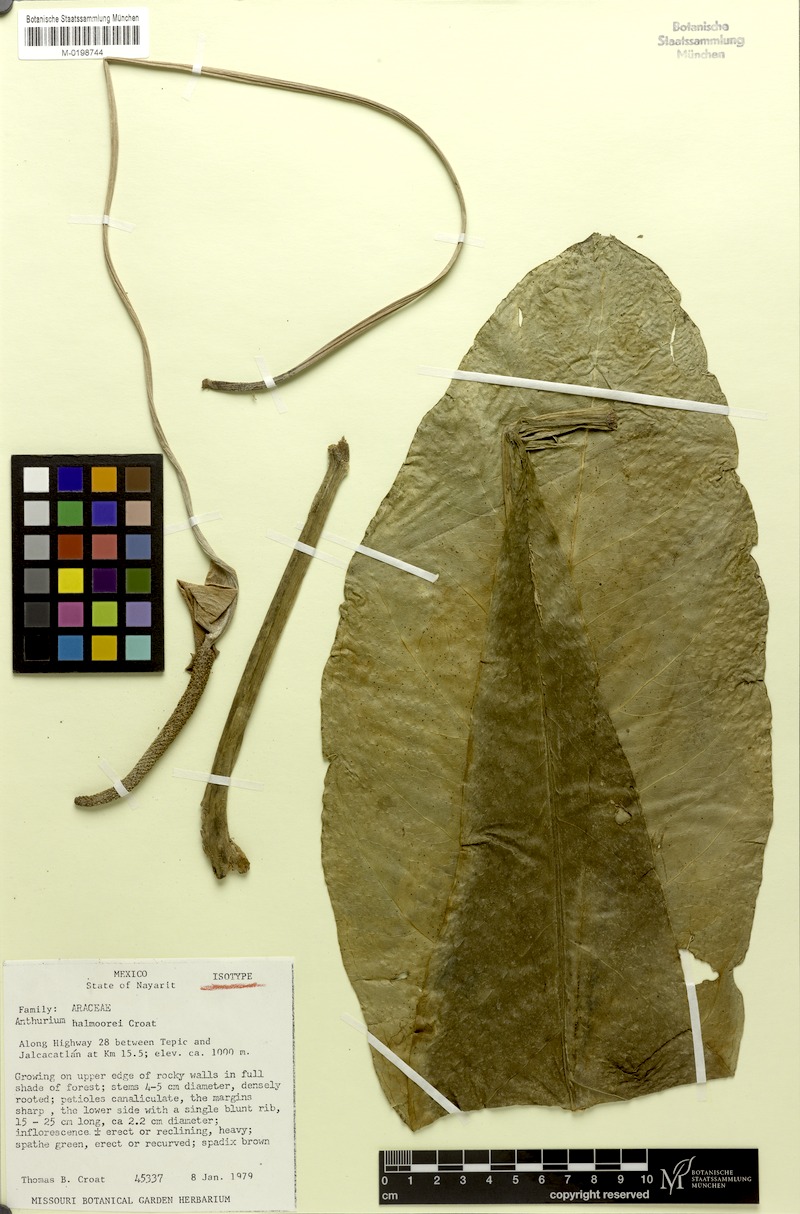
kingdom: Plantae
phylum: Tracheophyta
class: Liliopsida
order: Alismatales
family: Araceae
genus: Anthurium
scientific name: Anthurium halmoorei
